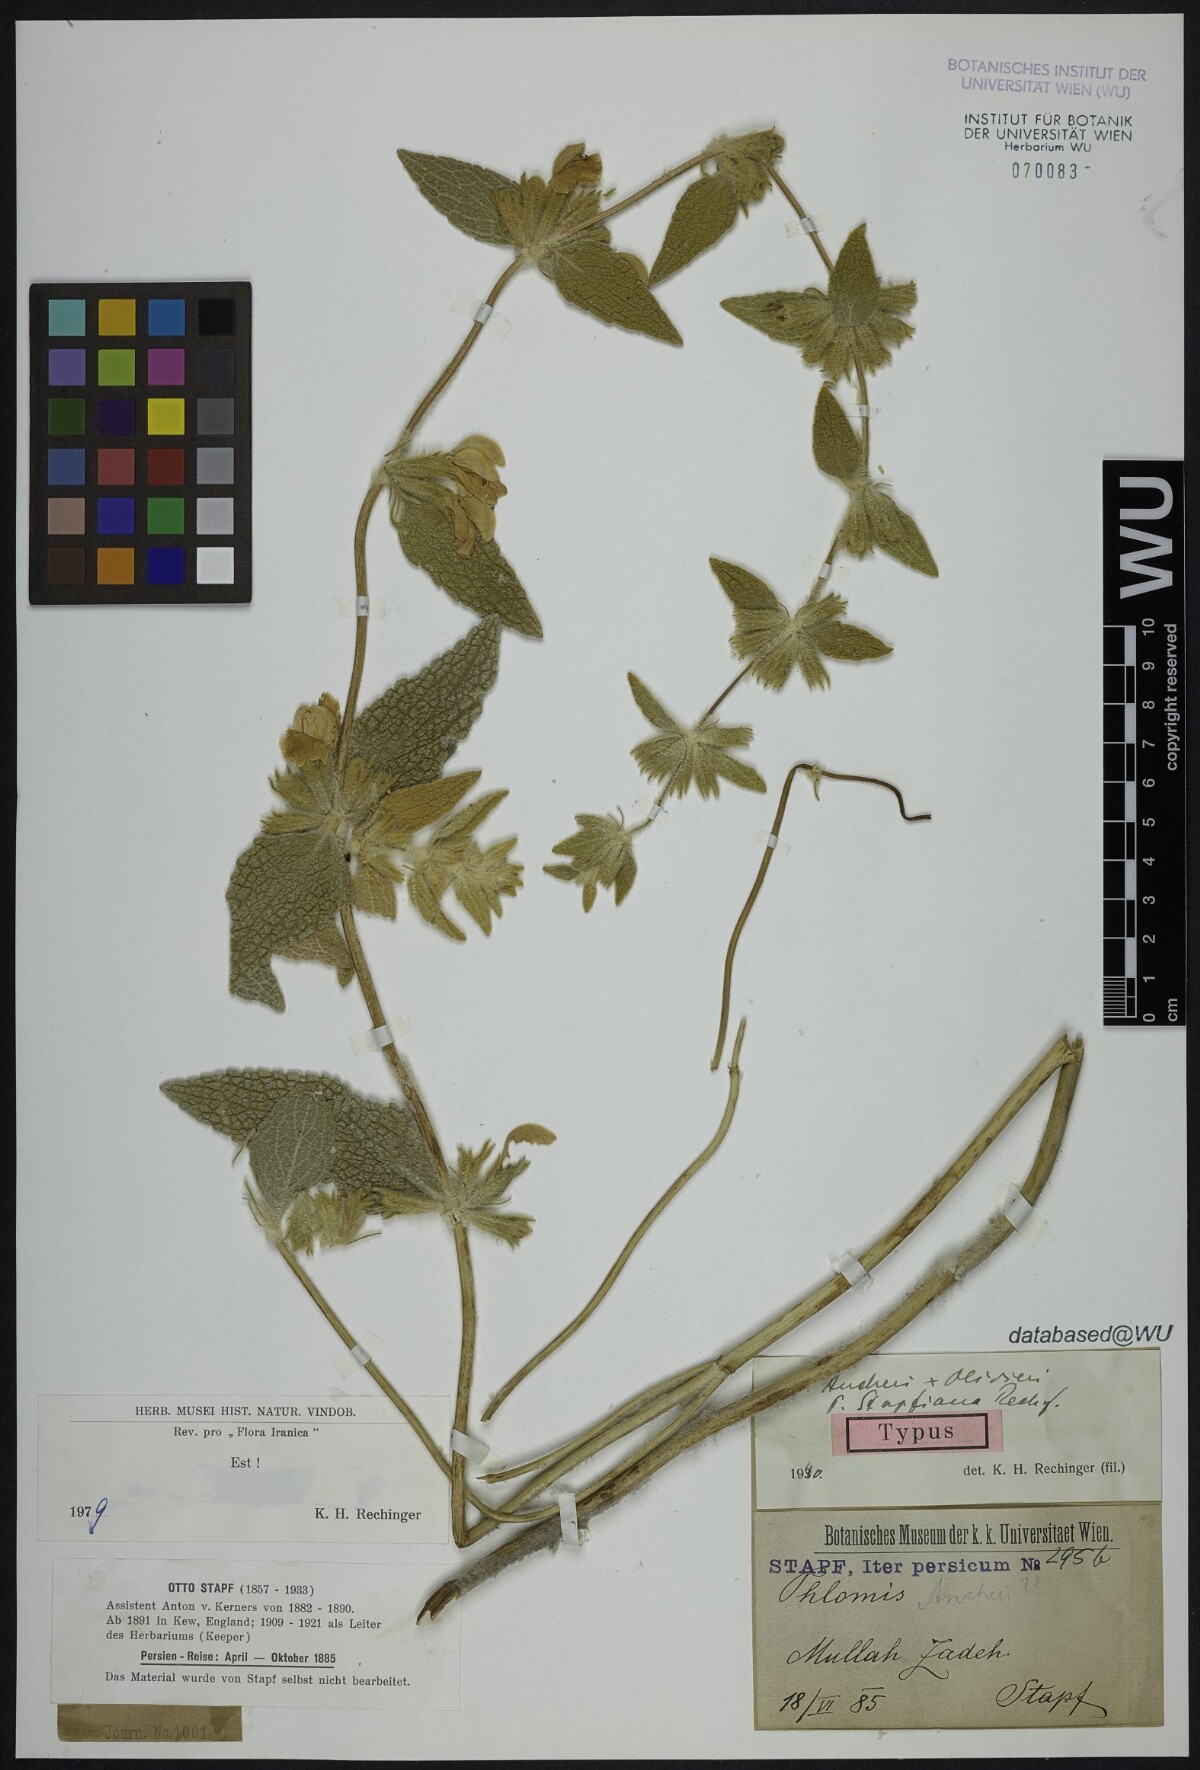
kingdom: Plantae
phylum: Tracheophyta
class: Magnoliopsida
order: Lamiales
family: Lamiaceae
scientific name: Lamiaceae
